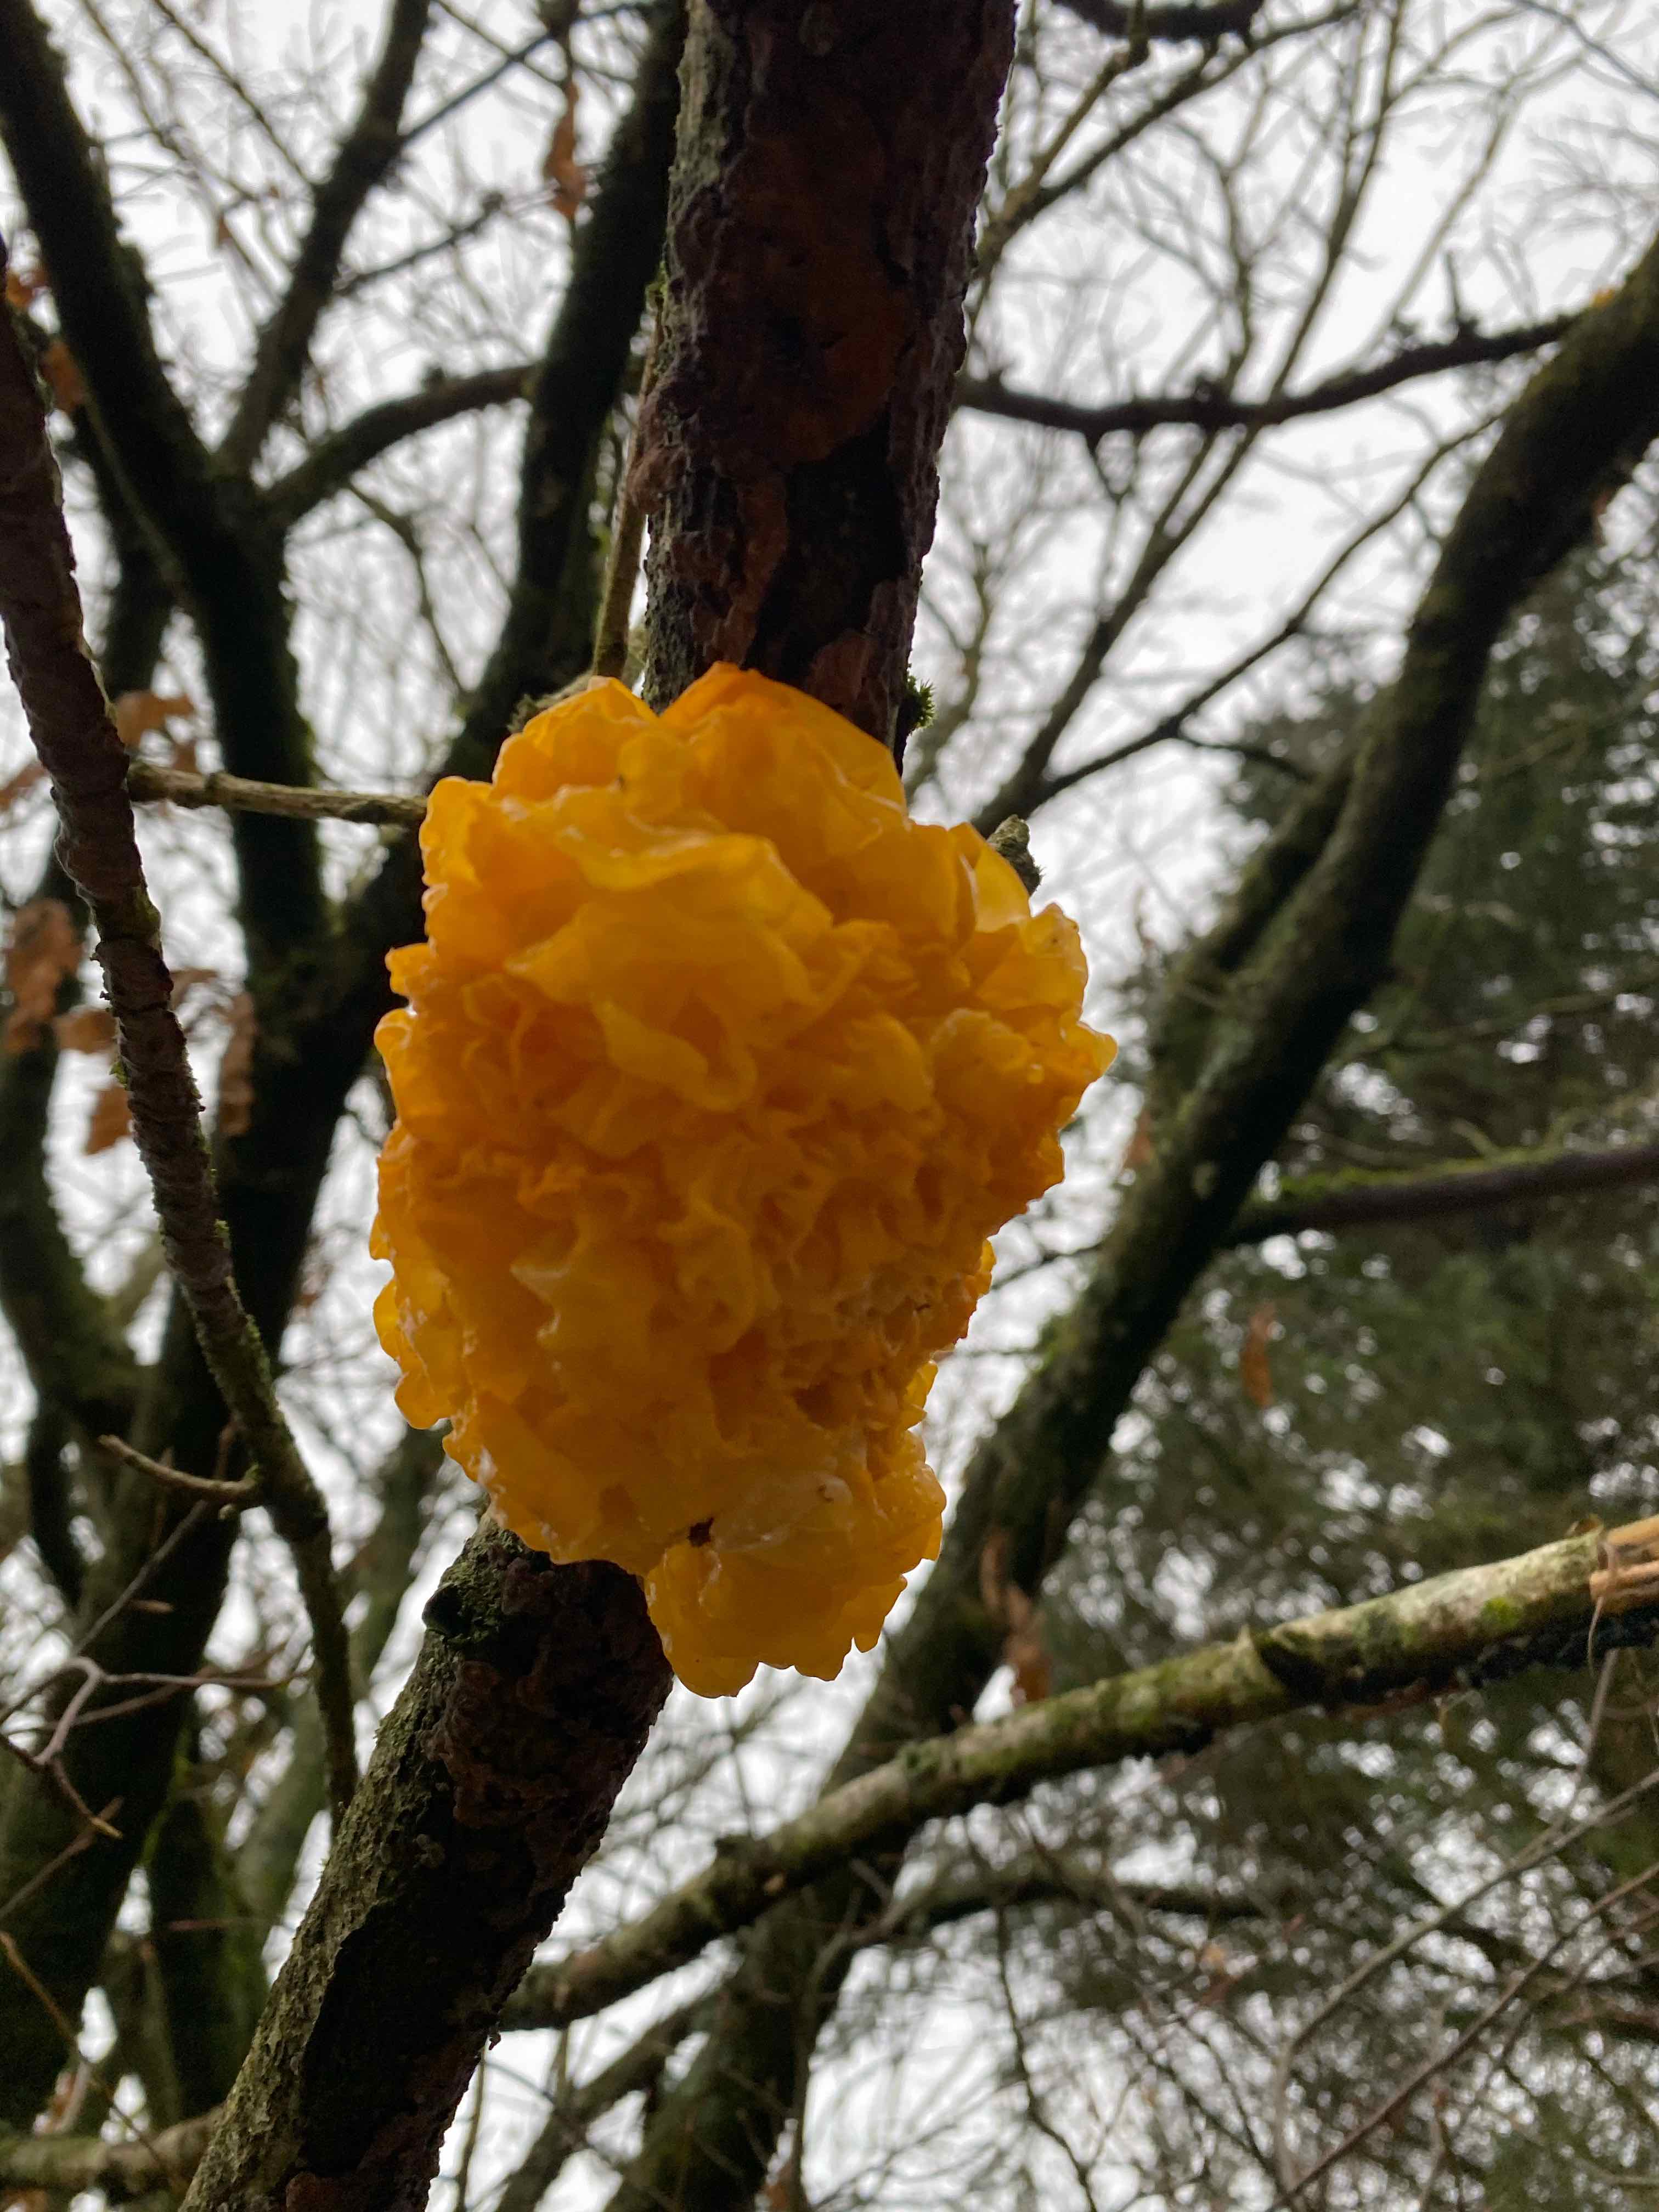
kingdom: Fungi
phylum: Basidiomycota
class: Tremellomycetes
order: Tremellales
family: Tremellaceae
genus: Tremella
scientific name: Tremella mesenterica
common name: gul bævresvamp
